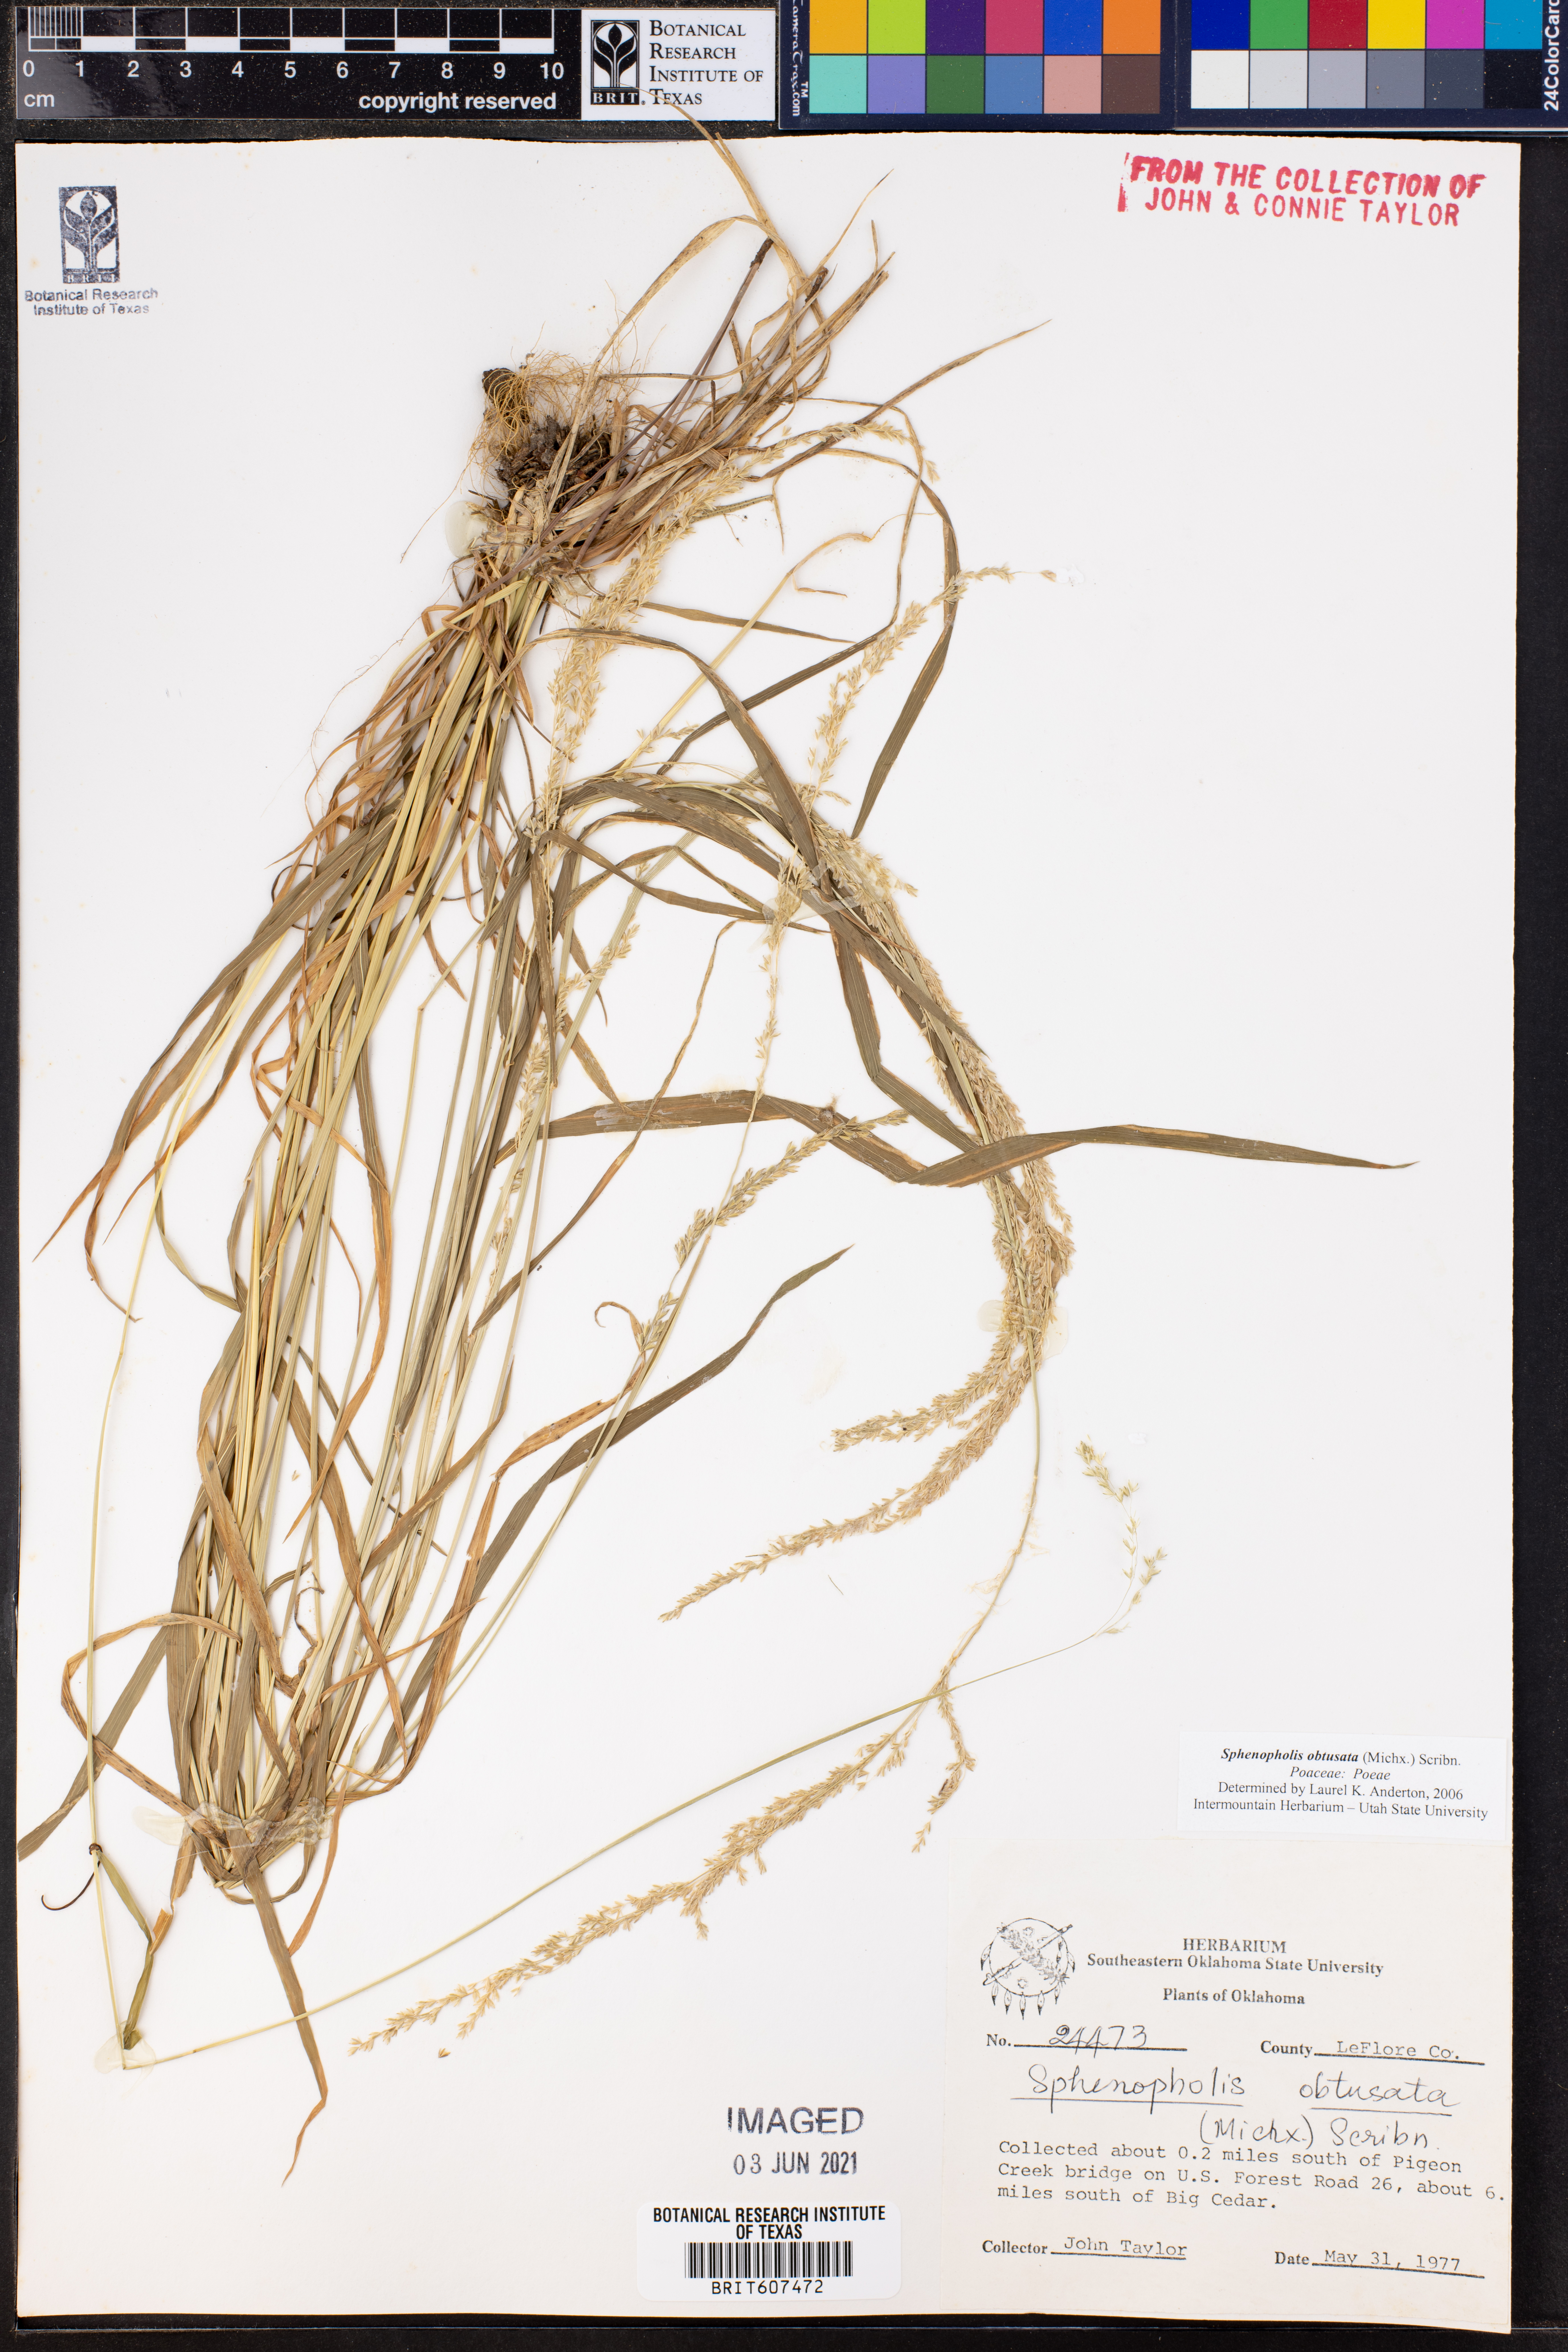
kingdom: Plantae
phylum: Tracheophyta
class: Liliopsida
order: Poales
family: Poaceae
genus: Sphenopholis
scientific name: Sphenopholis obtusata
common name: Prairie grass
